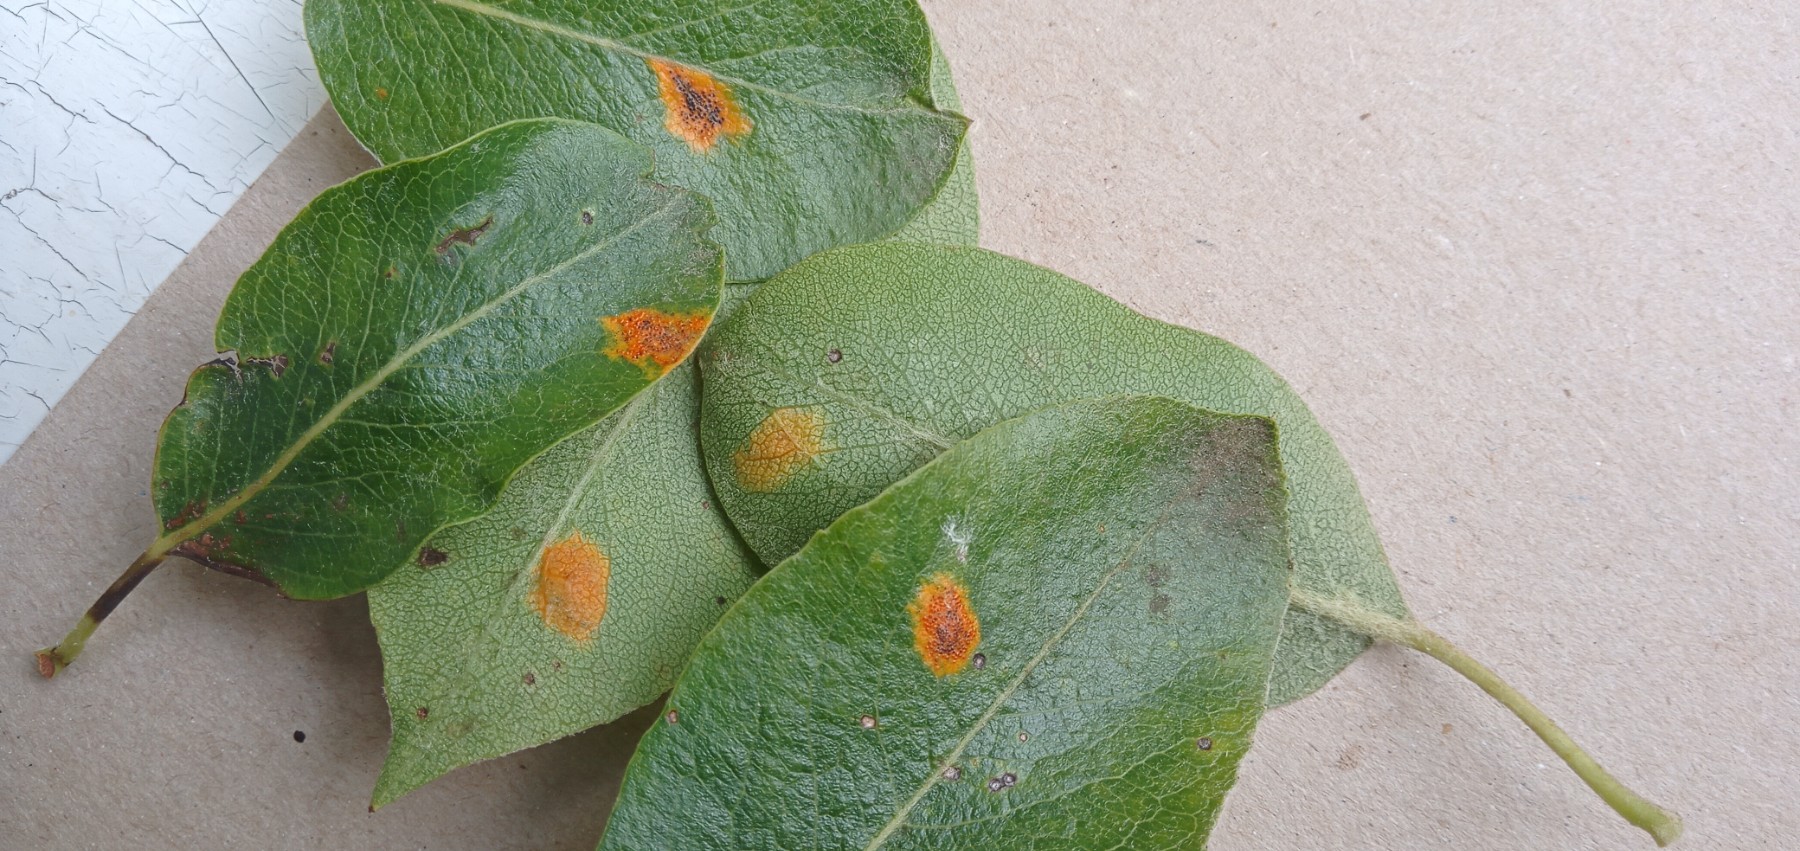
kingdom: Fungi
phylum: Basidiomycota
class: Pucciniomycetes
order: Pucciniales
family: Gymnosporangiaceae
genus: Gymnosporangium
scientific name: Gymnosporangium sabinae
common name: pæregitter-bævrerust
